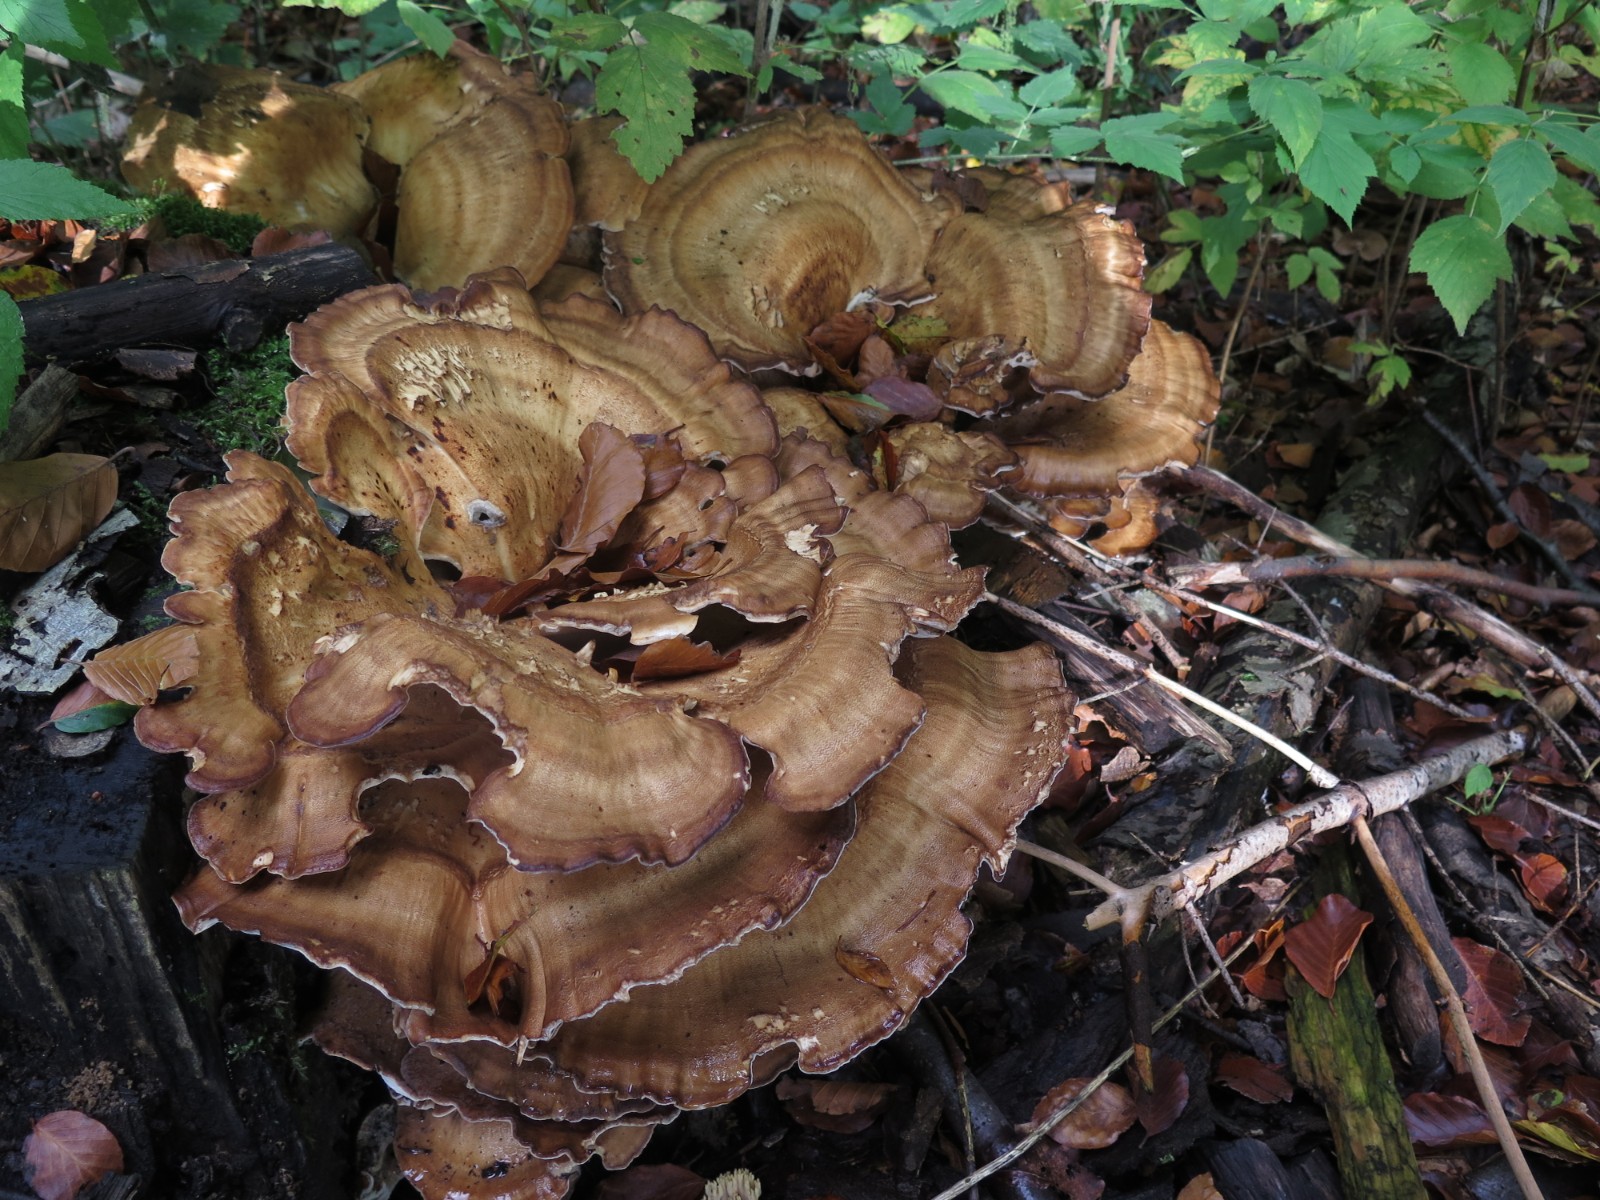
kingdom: Fungi
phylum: Basidiomycota
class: Agaricomycetes
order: Polyporales
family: Meripilaceae
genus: Meripilus
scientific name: Meripilus giganteus
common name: kæmpeporesvamp
